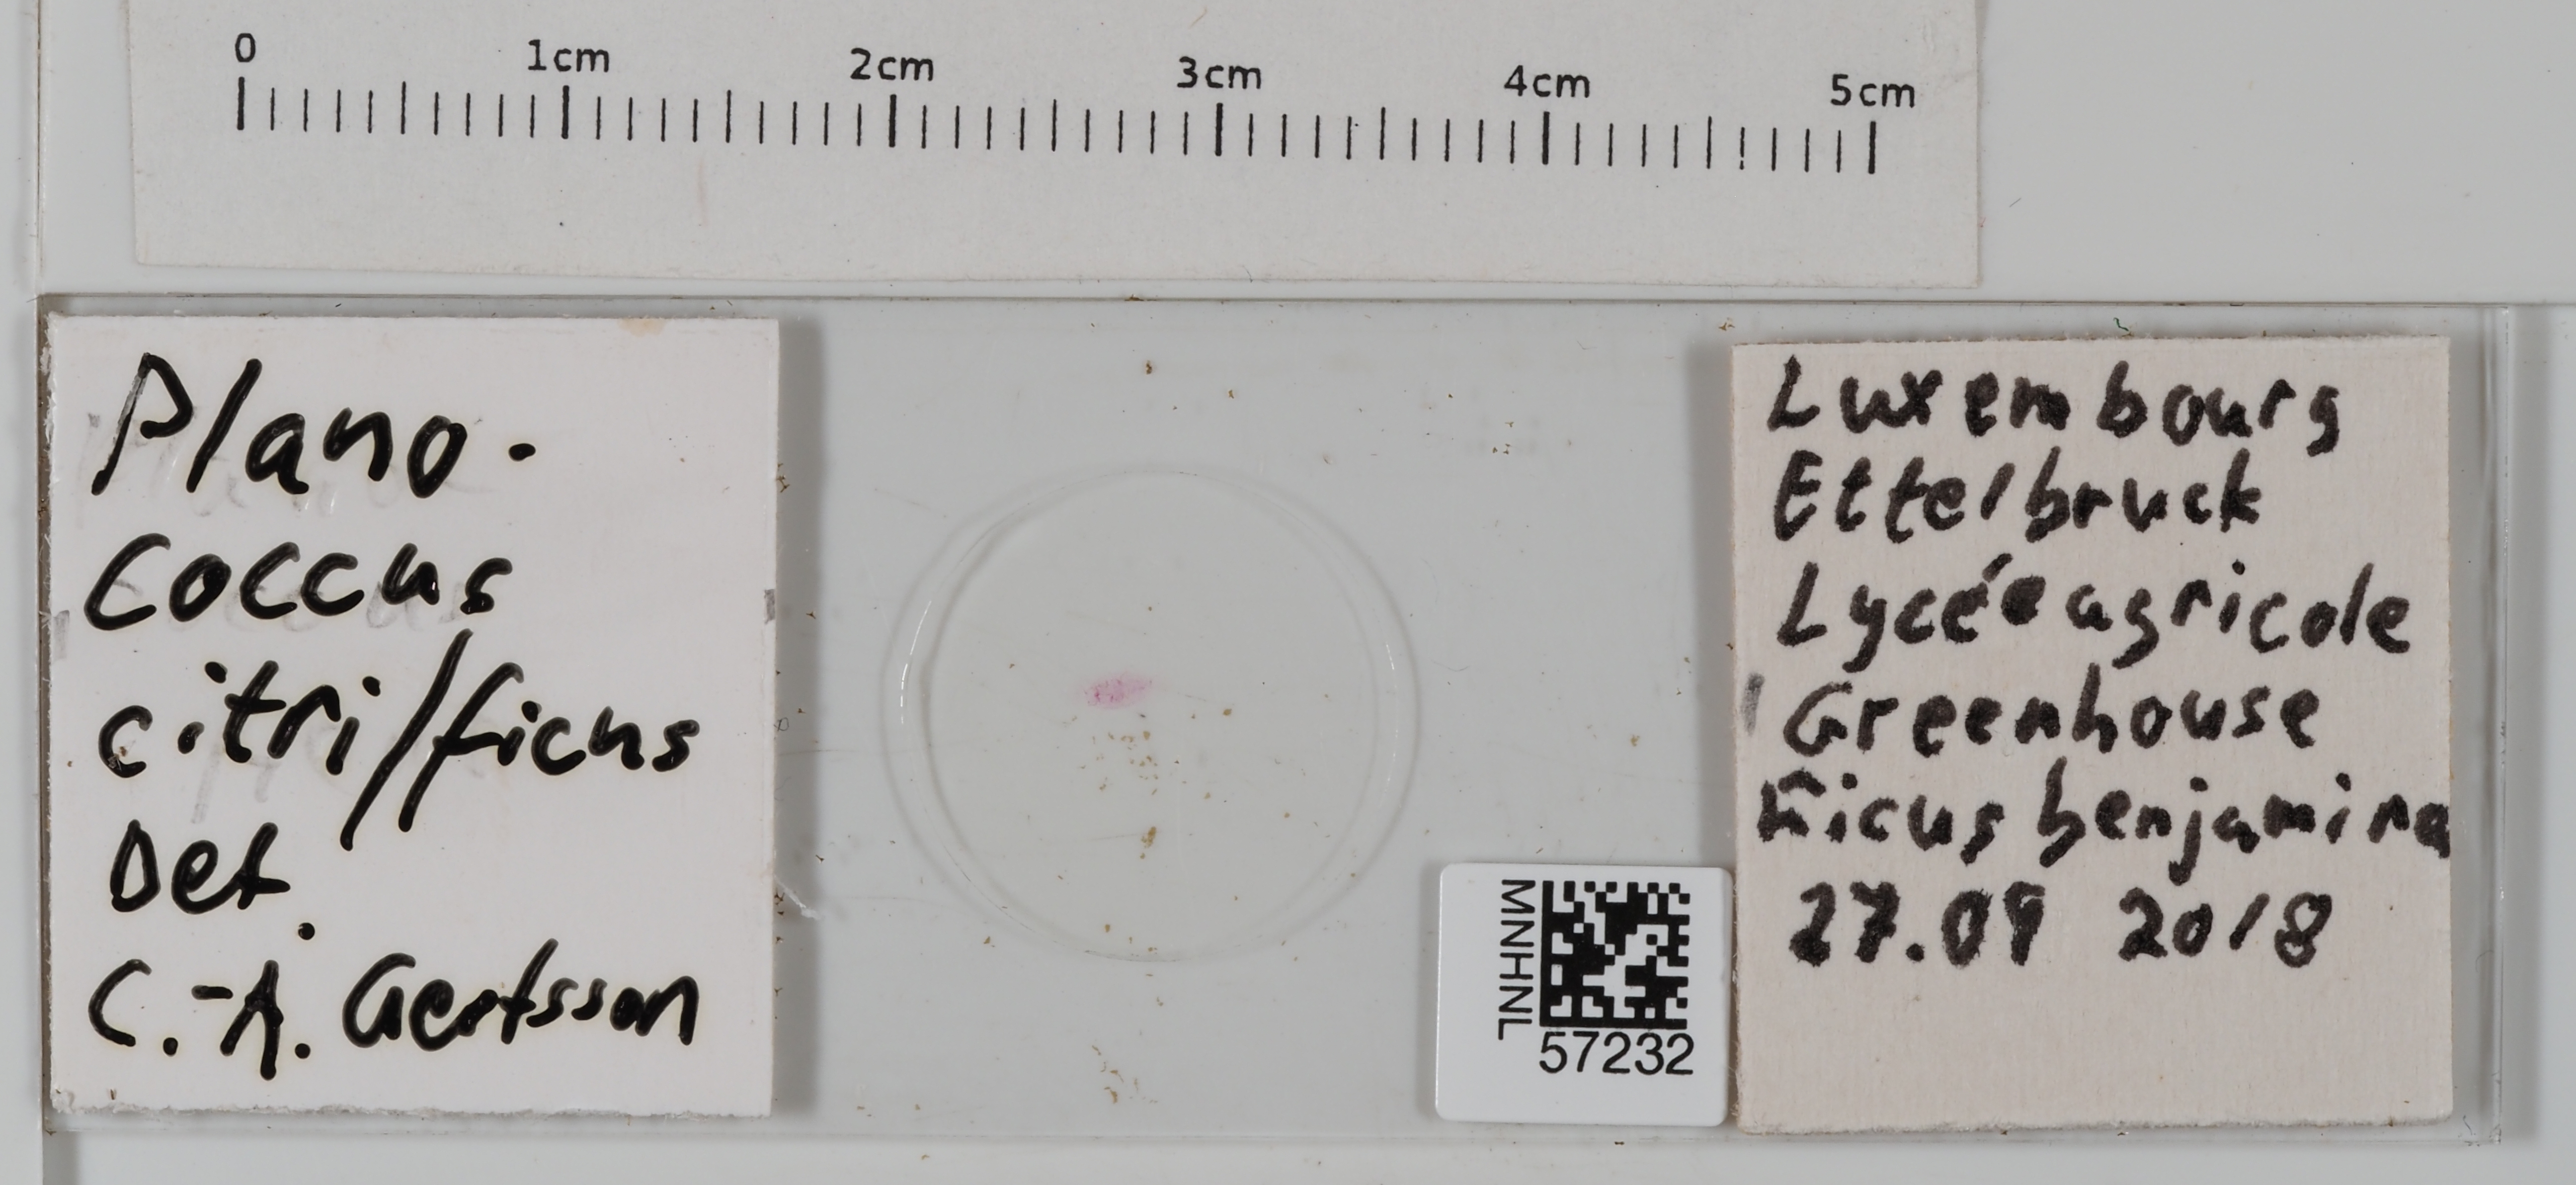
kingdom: Animalia
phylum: Arthropoda
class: Insecta
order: Hemiptera
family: Pseudococcidae
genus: Planococcus
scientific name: Planococcus
